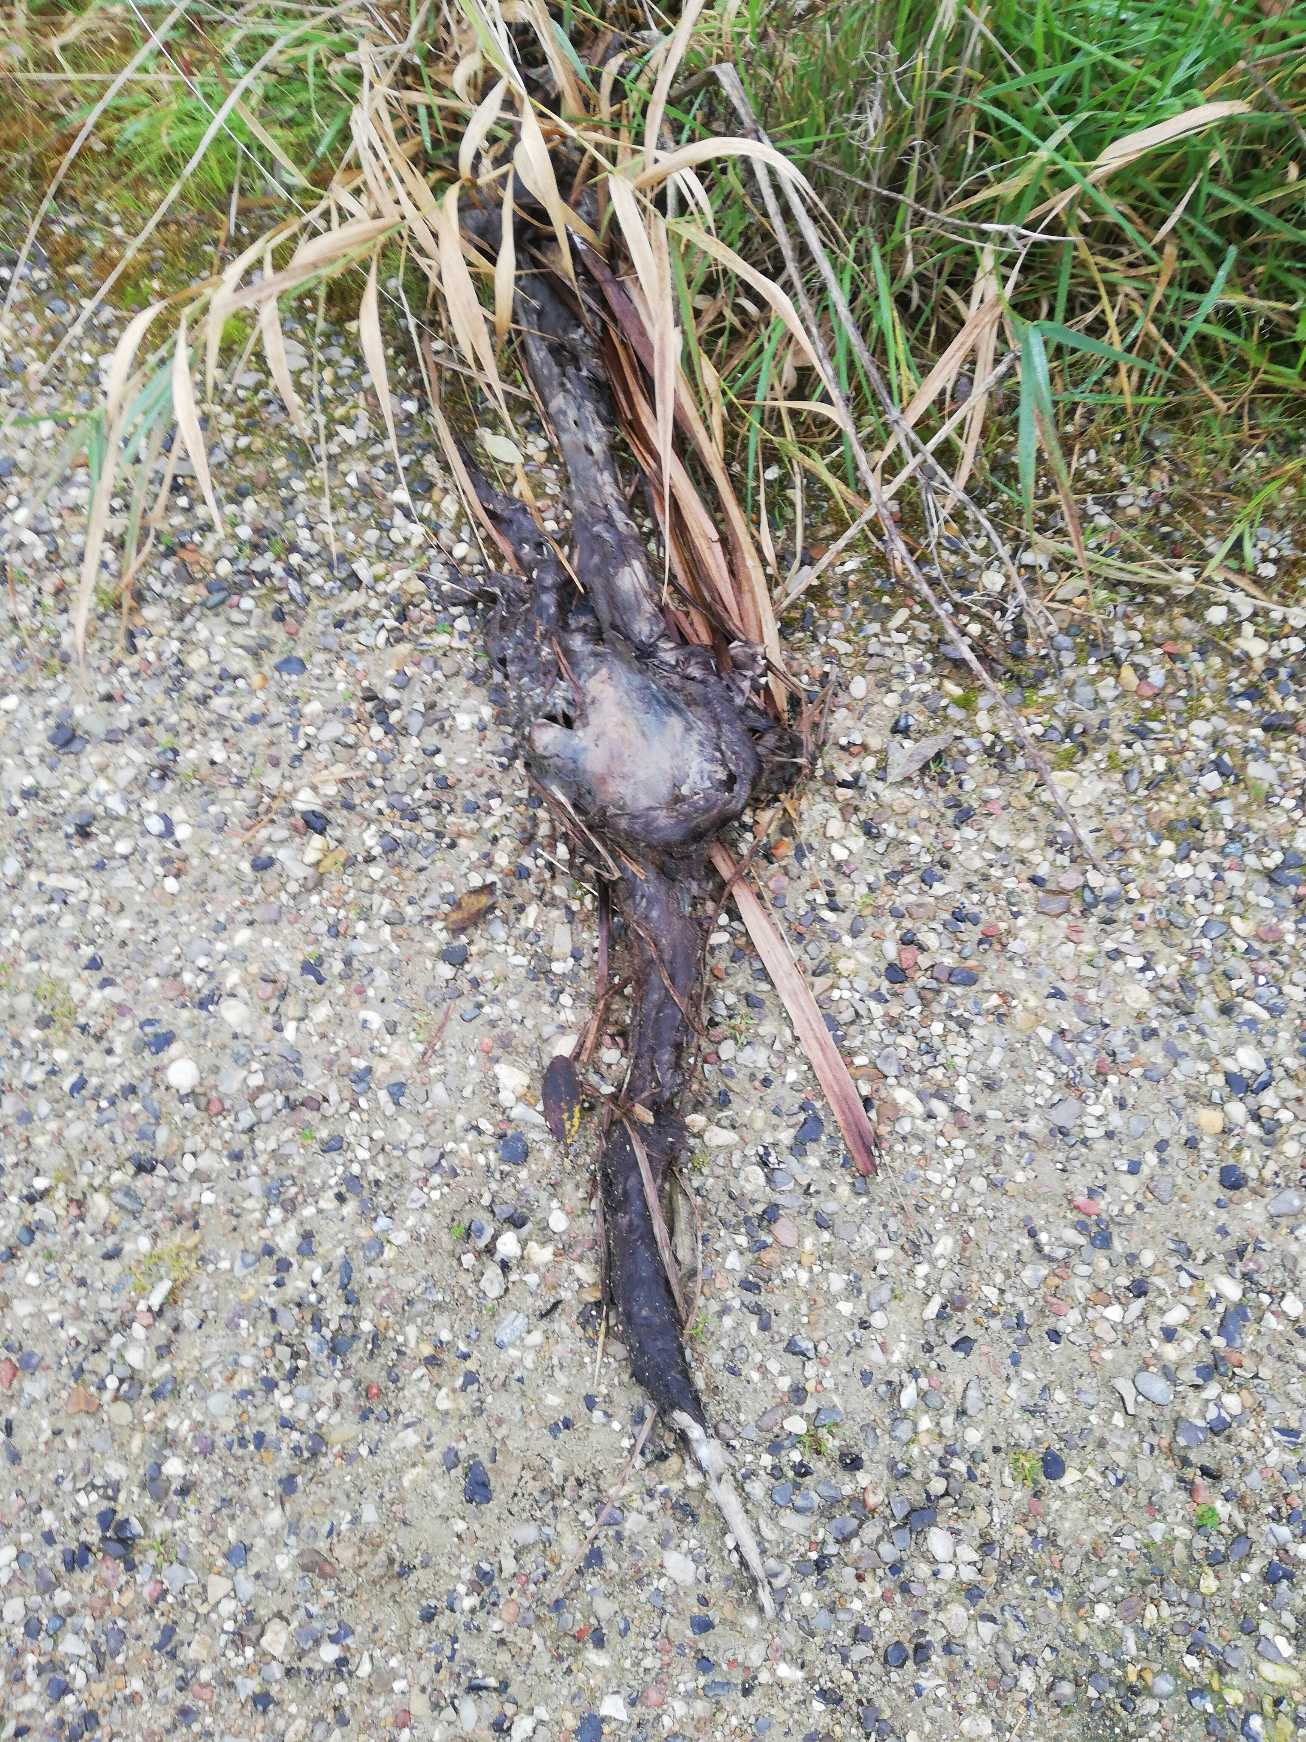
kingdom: Animalia
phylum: Chordata
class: Mammalia
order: Carnivora
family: Mustelidae
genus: Lutra
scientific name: Lutra lutra
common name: Odder
